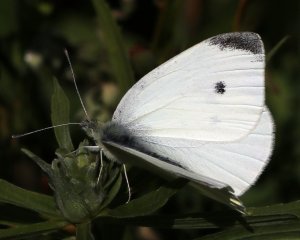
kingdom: Animalia
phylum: Arthropoda
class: Insecta
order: Lepidoptera
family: Pieridae
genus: Pieris
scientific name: Pieris rapae
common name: Cabbage White
